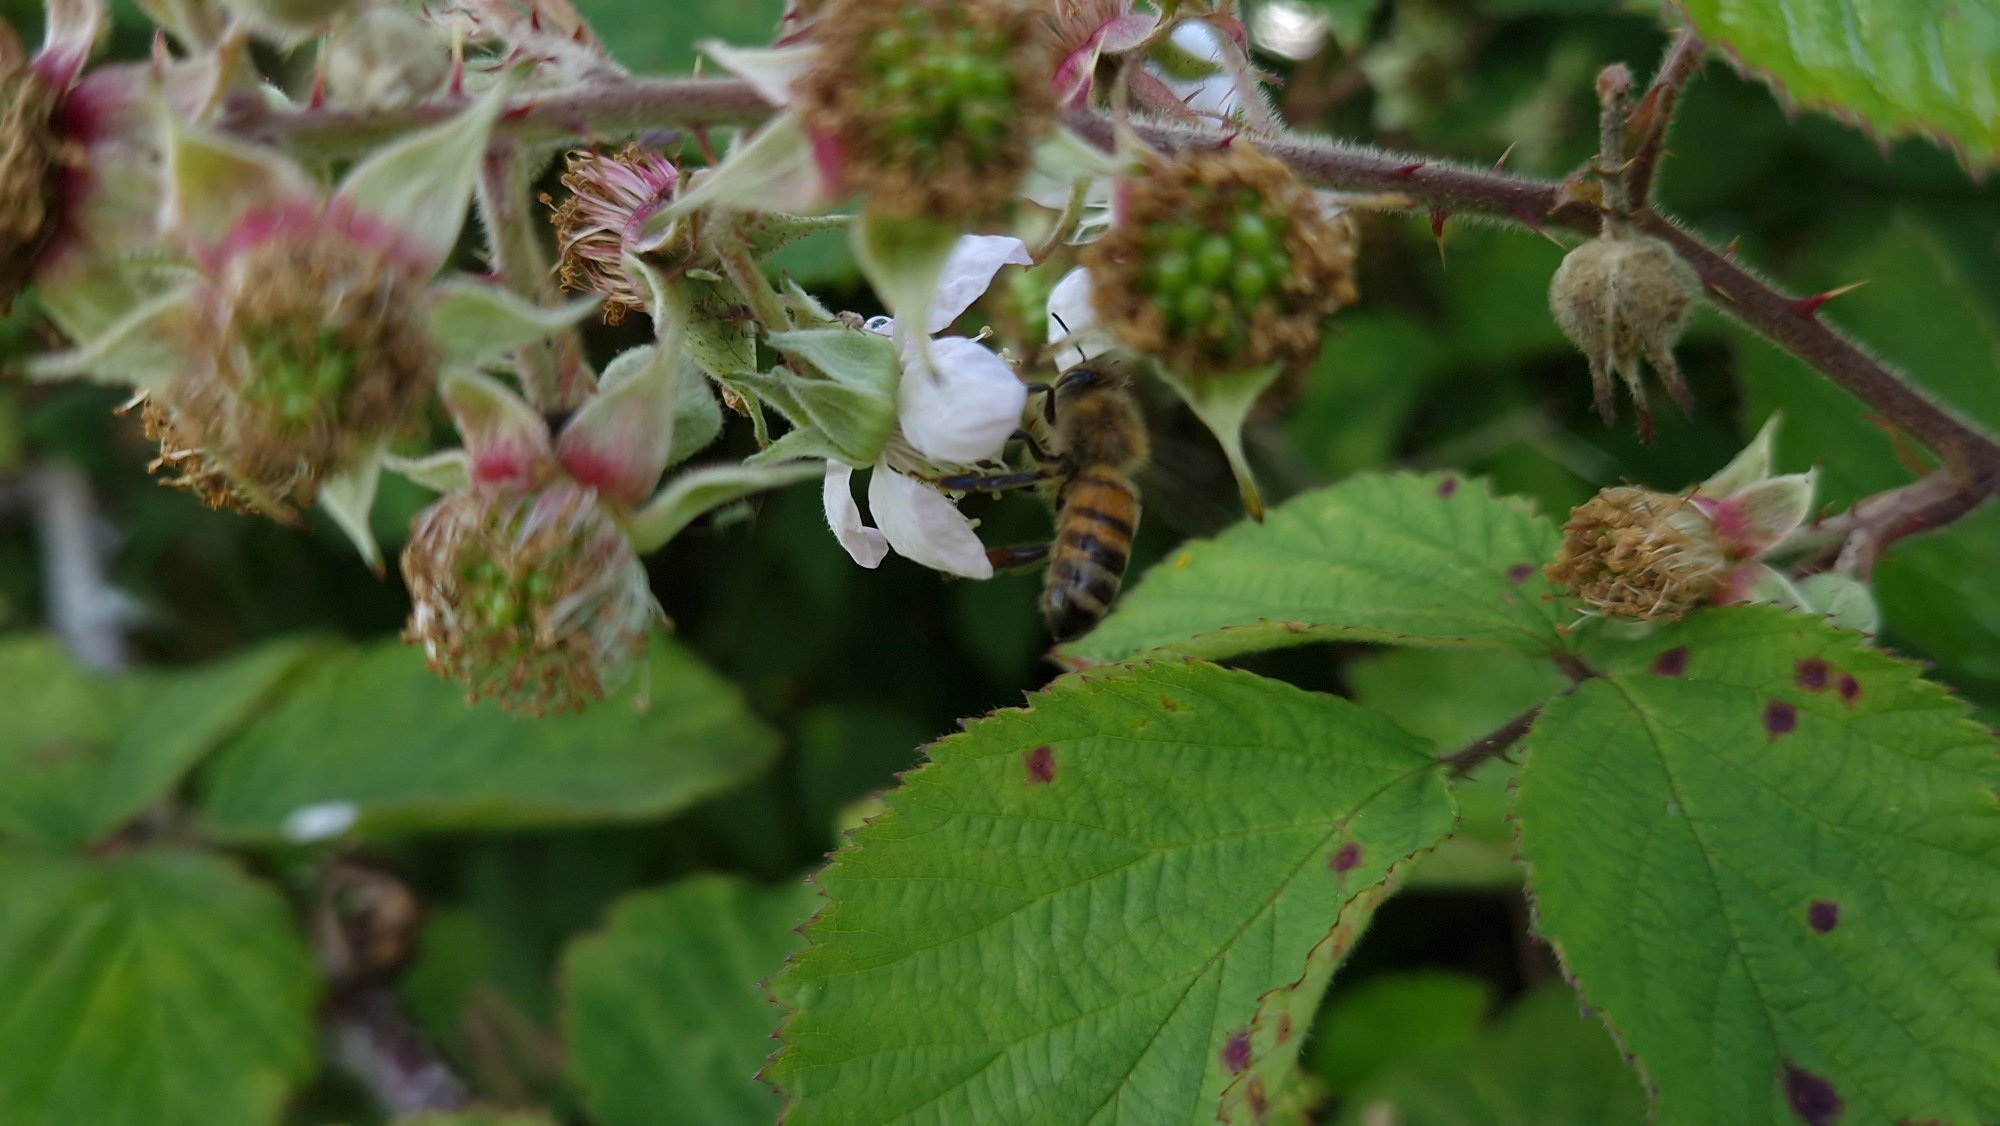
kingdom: Animalia
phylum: Arthropoda
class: Insecta
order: Hymenoptera
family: Apidae
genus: Apis
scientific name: Apis mellifera
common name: Honningbi
